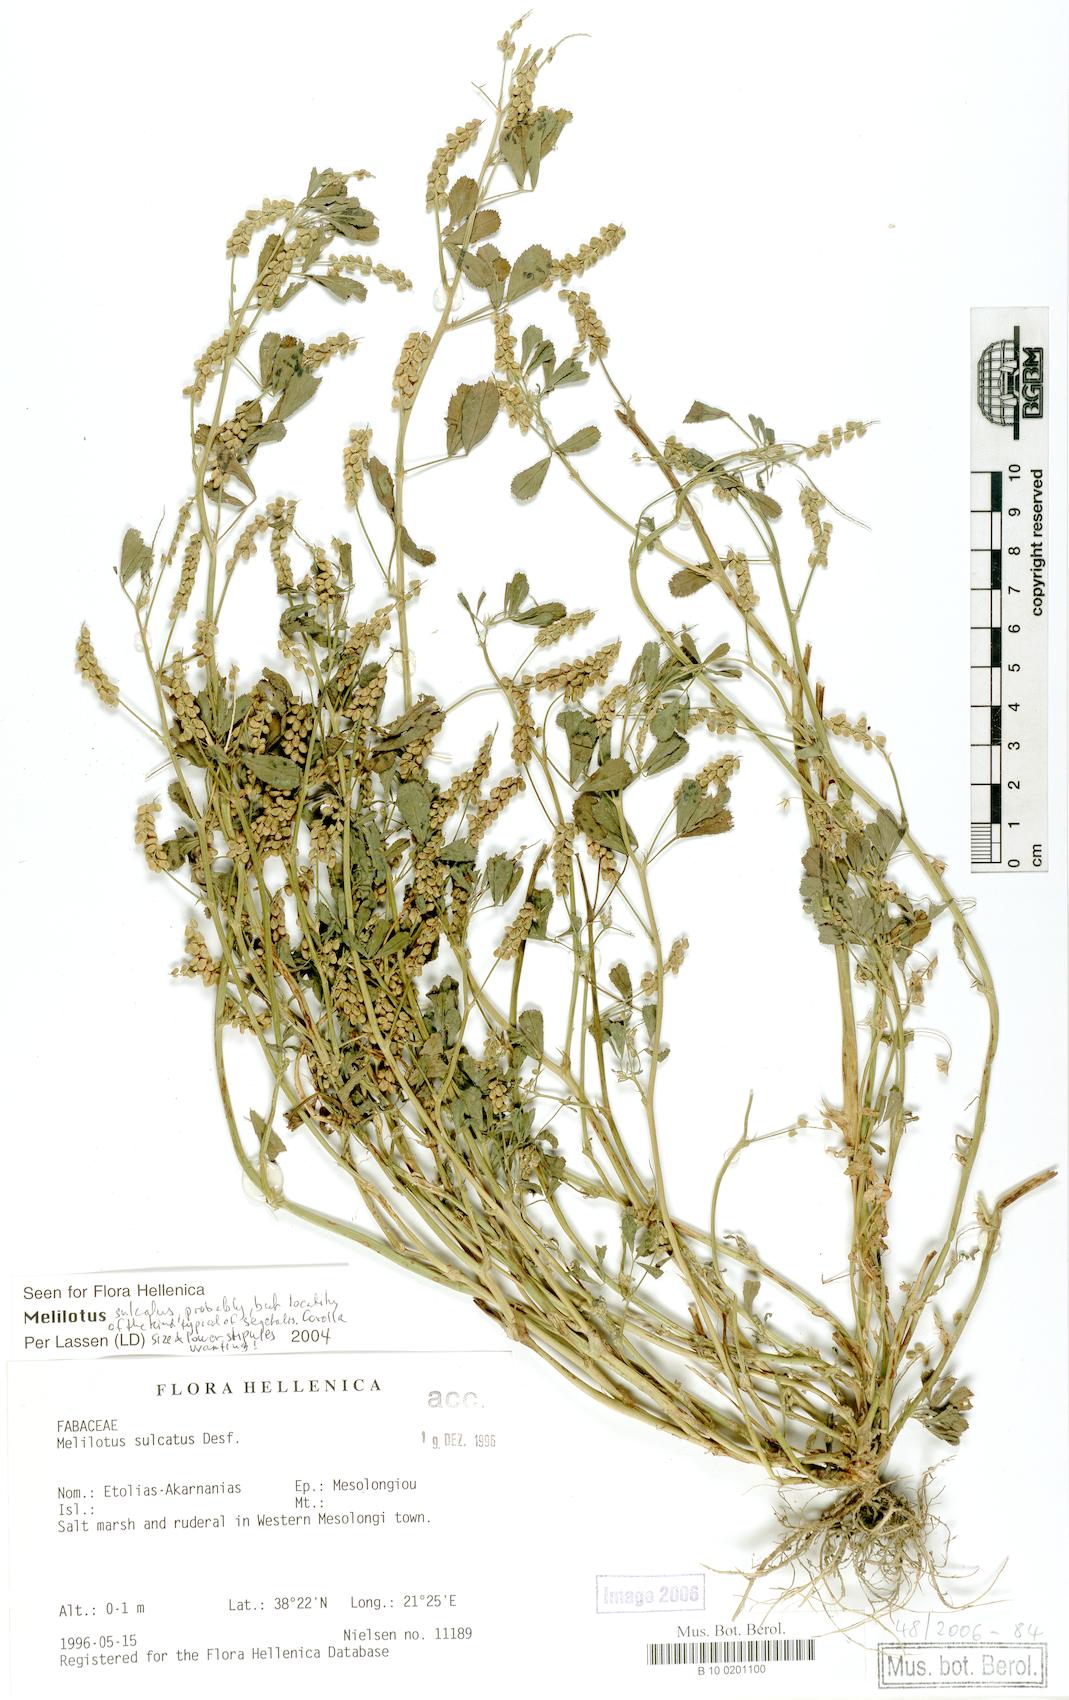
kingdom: Plantae
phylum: Tracheophyta
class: Magnoliopsida
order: Fabales
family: Fabaceae
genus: Melilotus
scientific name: Melilotus sulcatus
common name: Furrowed melilot
